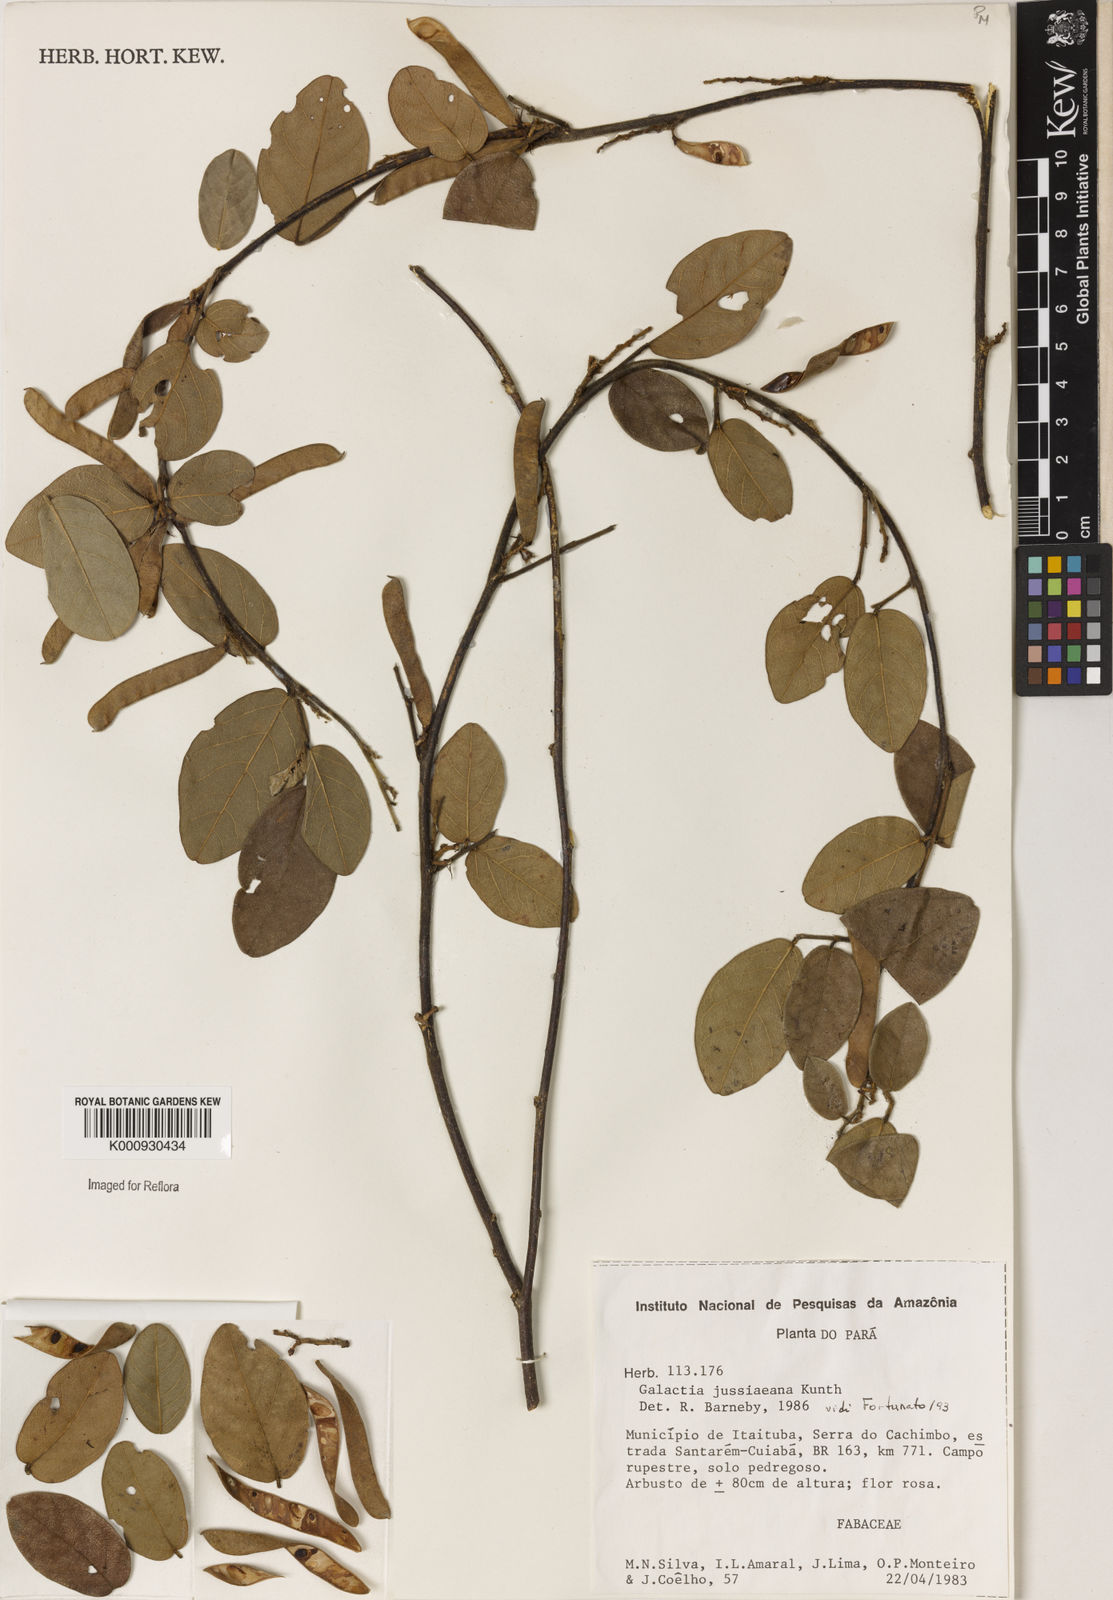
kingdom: Plantae
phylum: Tracheophyta
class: Magnoliopsida
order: Fabales
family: Fabaceae
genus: Galactia
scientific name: Galactia jussiaeana
